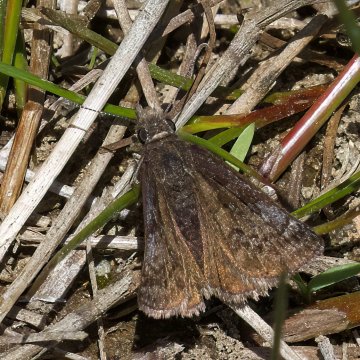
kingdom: Animalia
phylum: Arthropoda
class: Insecta
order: Lepidoptera
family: Hesperiidae
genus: Erynnis
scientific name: Erynnis icelus
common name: Dreamy Duskywing
